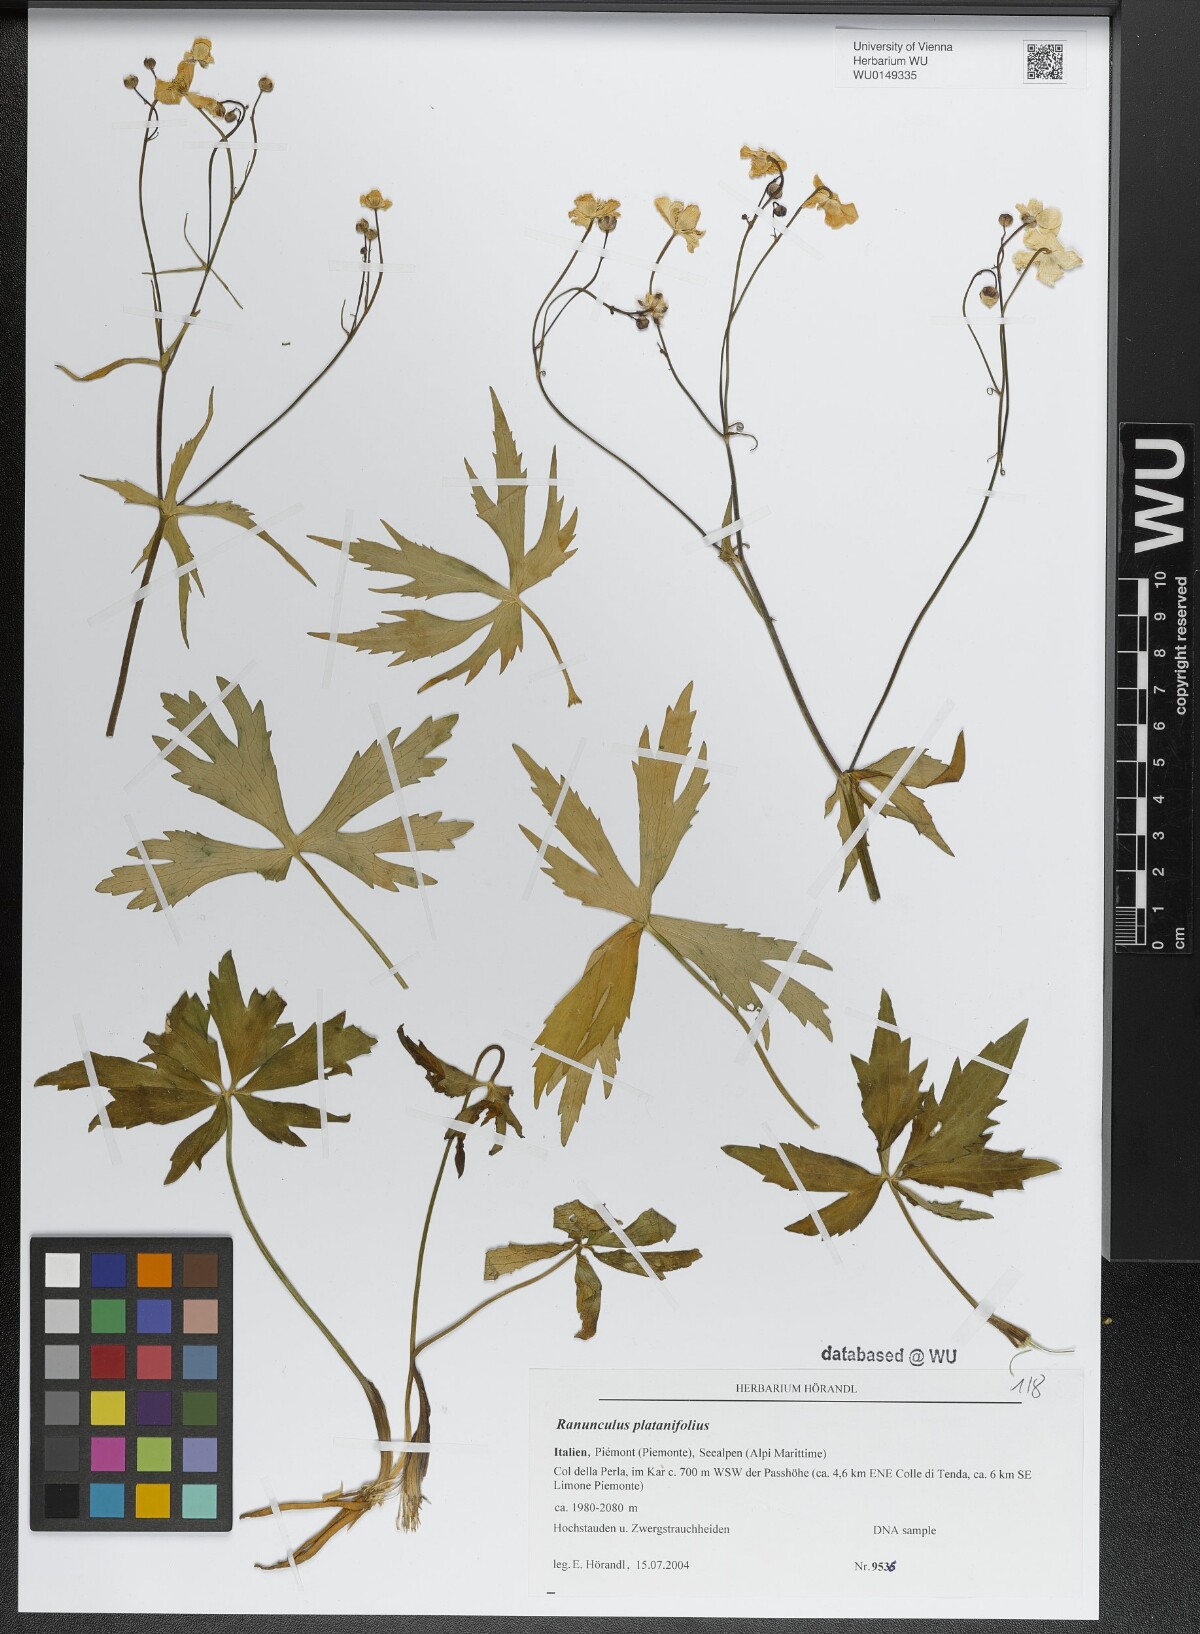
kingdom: Plantae
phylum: Tracheophyta
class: Magnoliopsida
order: Ranunculales
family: Ranunculaceae
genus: Ranunculus
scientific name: Ranunculus platanifolius
